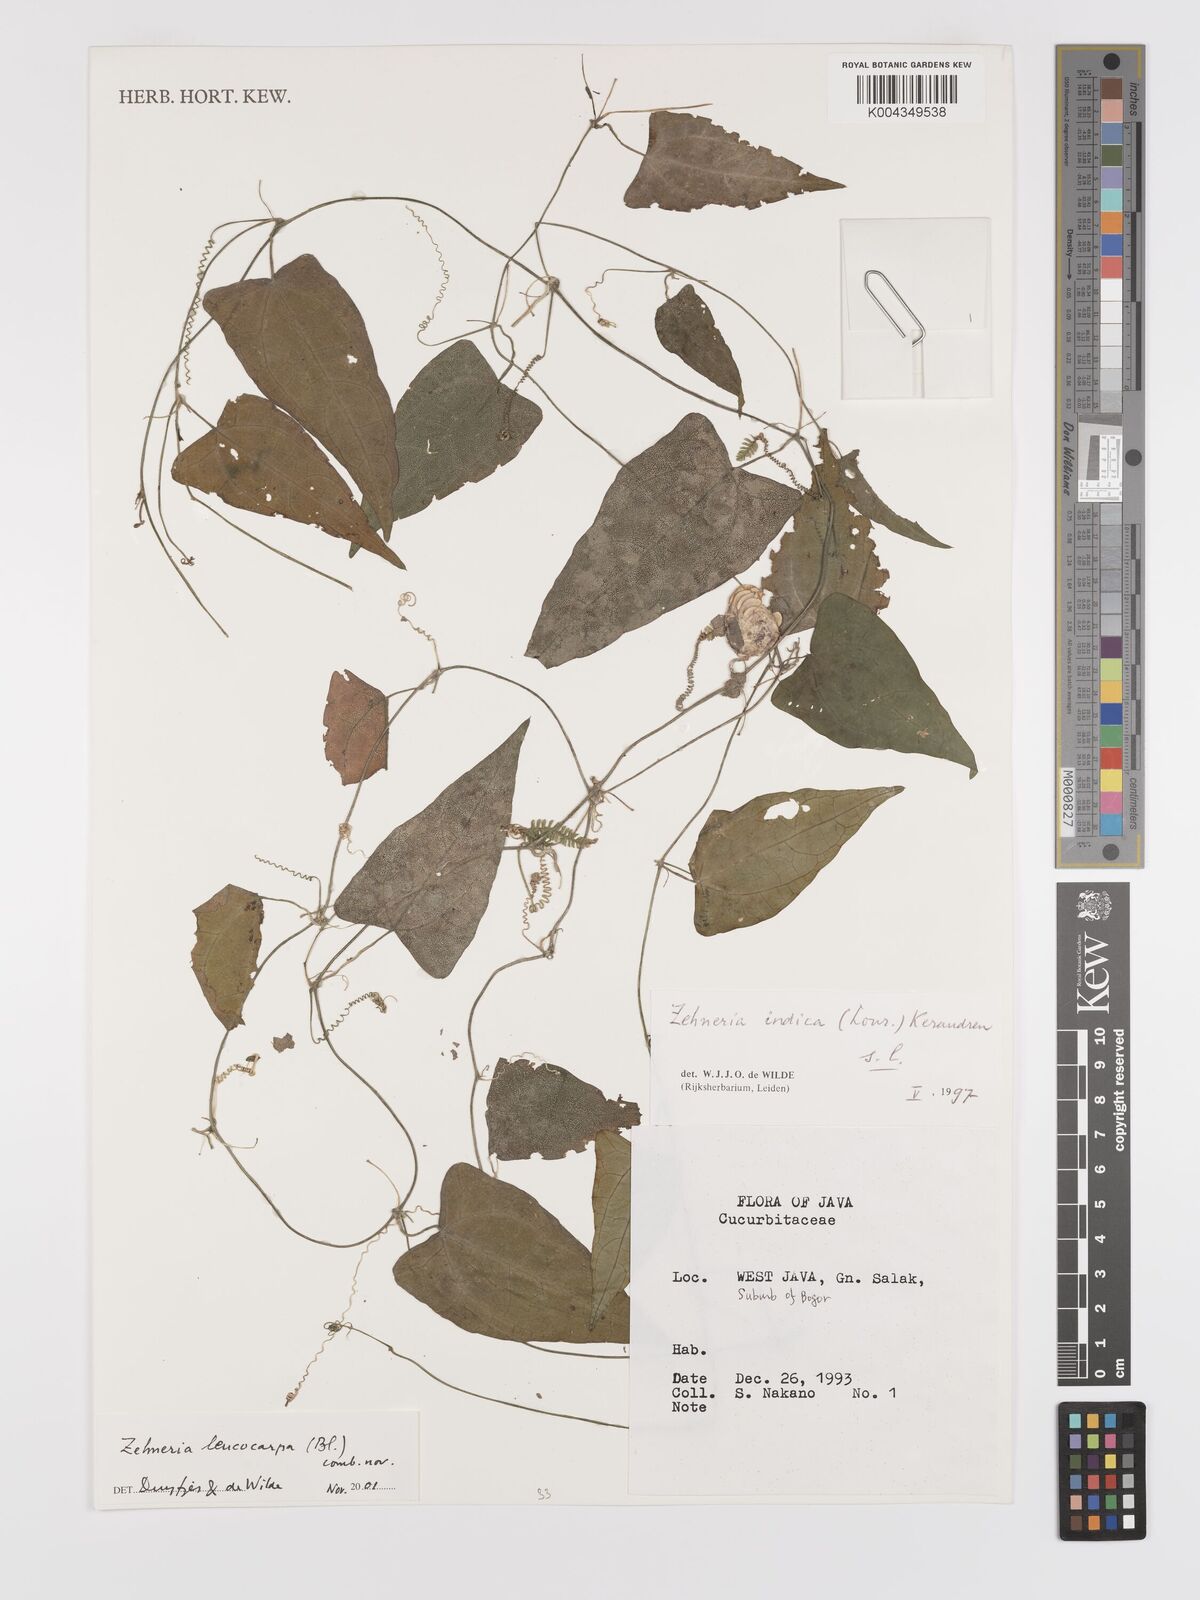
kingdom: Plantae
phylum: Tracheophyta
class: Magnoliopsida
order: Cucurbitales
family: Cucurbitaceae
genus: Zehneria
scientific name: Zehneria leucocarpa
